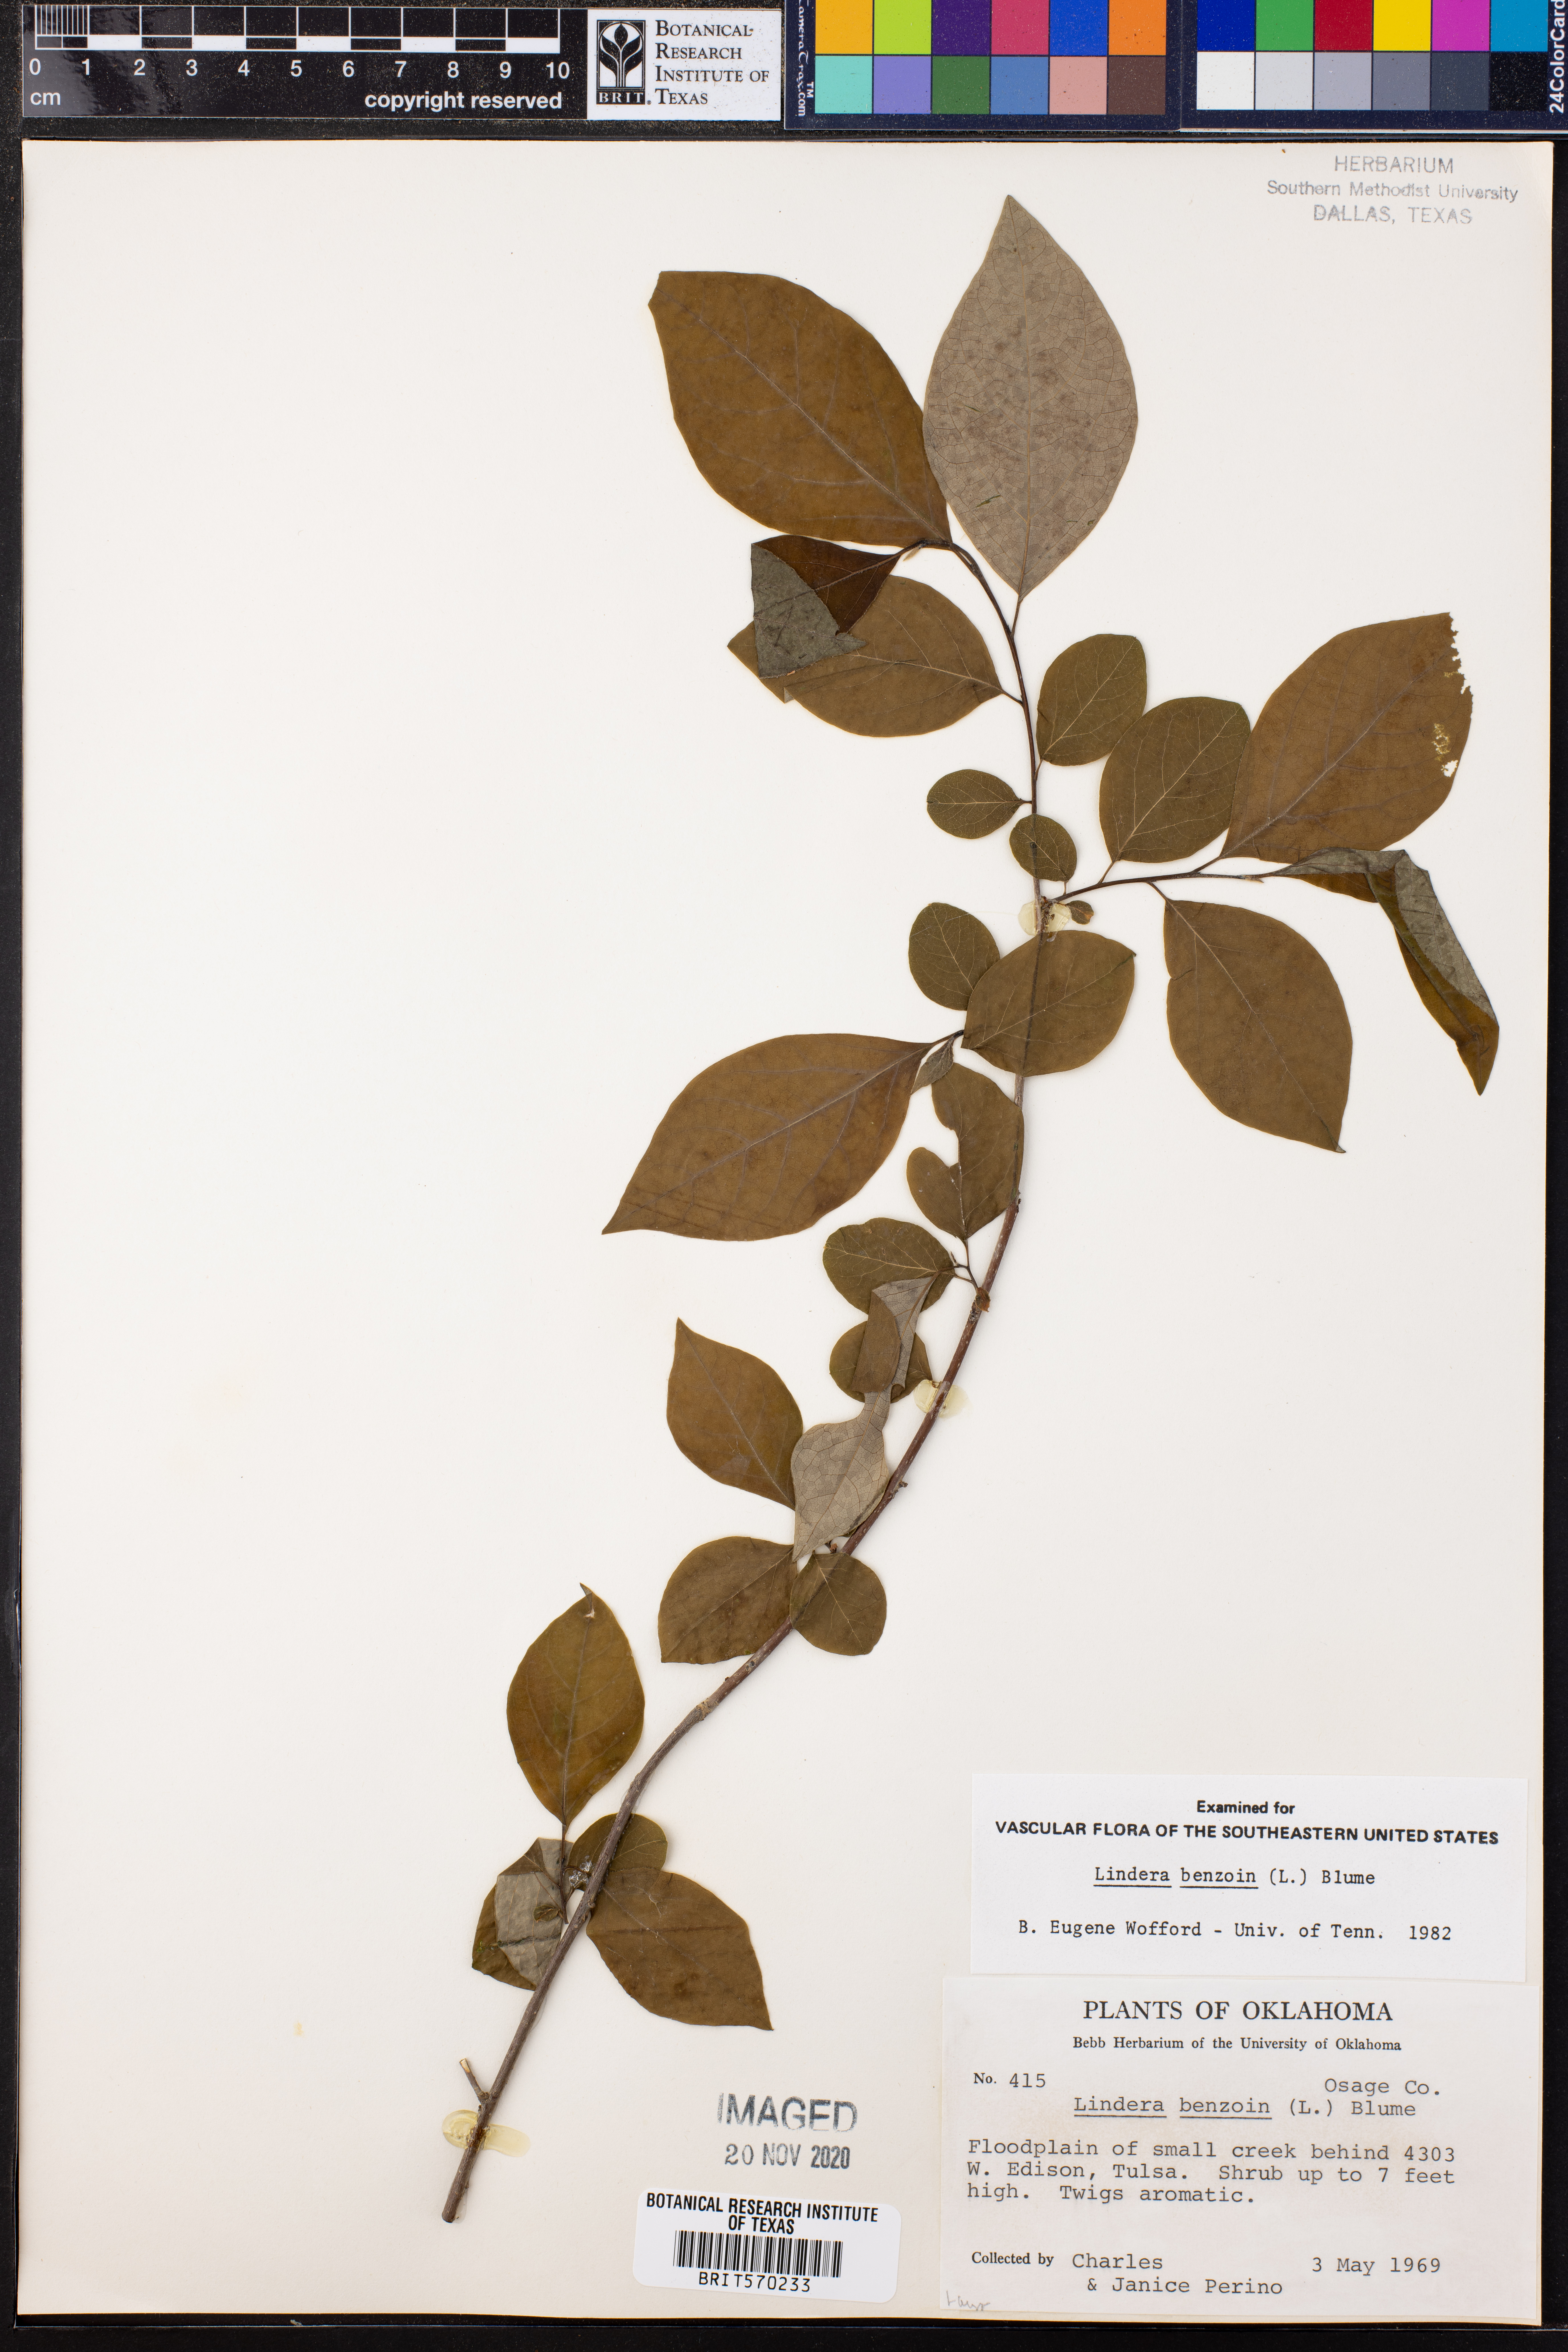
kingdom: Plantae
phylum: Tracheophyta
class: Magnoliopsida
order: Laurales
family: Lauraceae
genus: Lindera
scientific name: Lindera benzoin
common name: Spicebush
